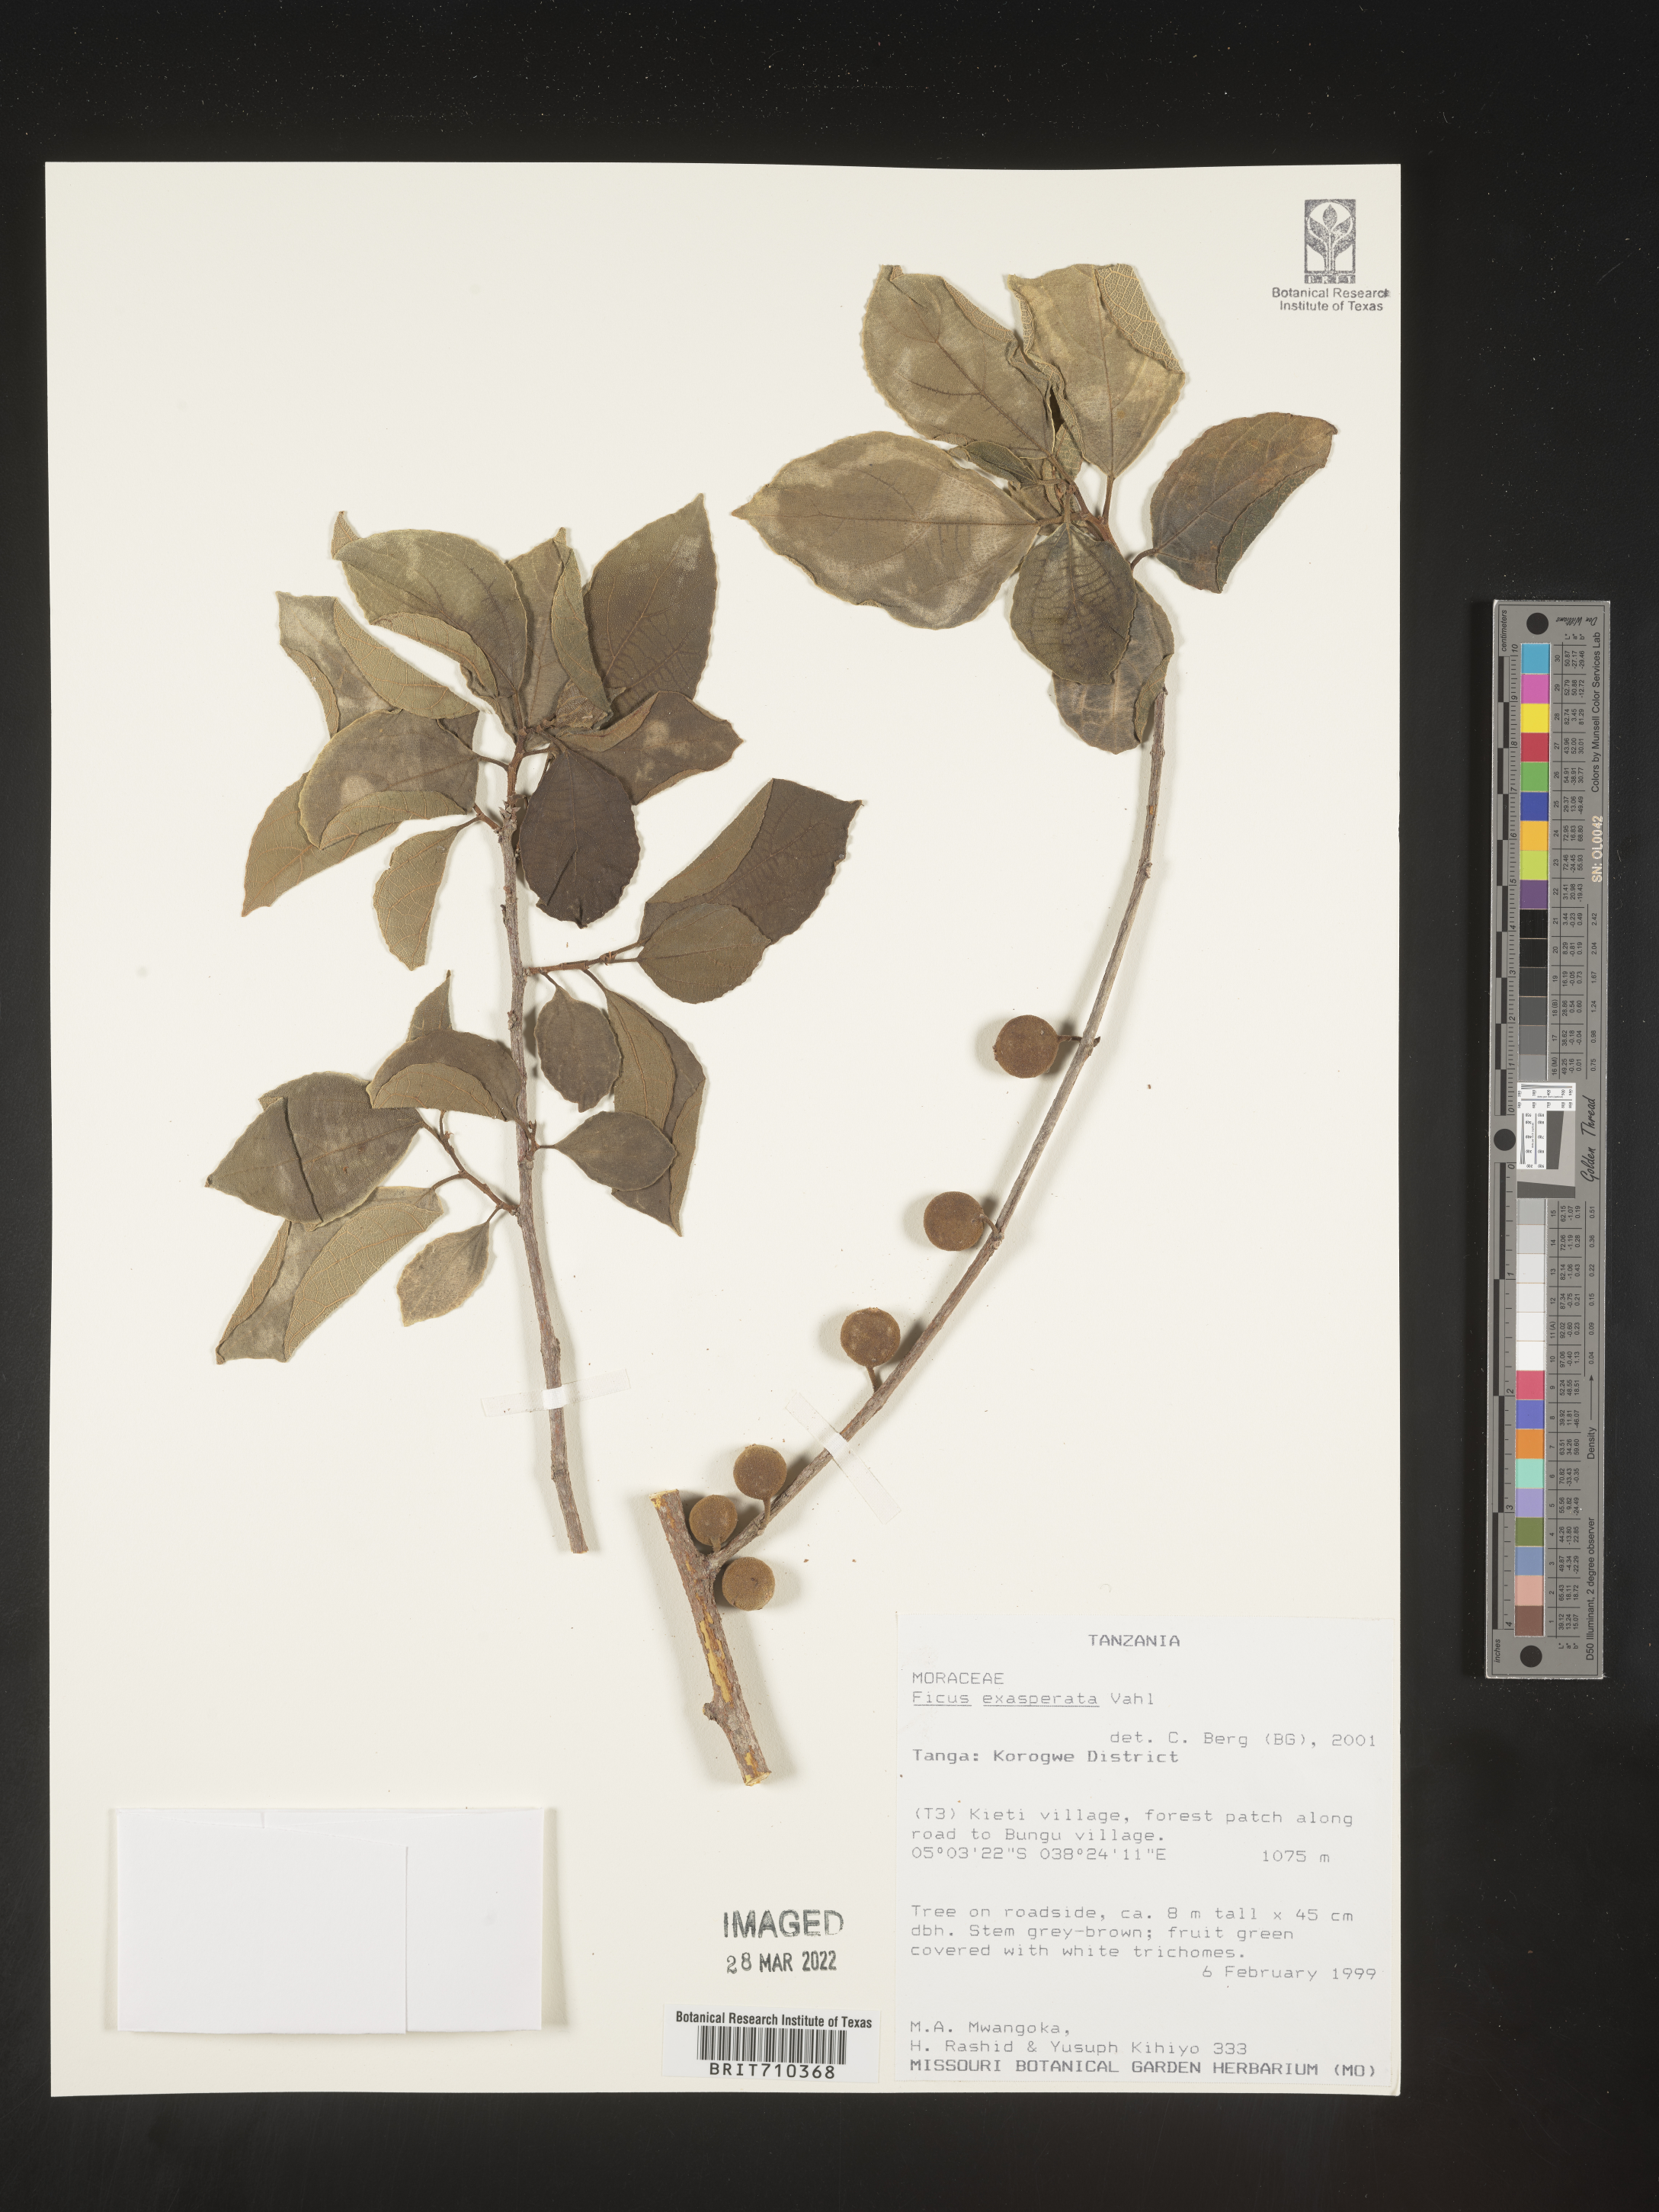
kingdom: Plantae
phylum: Tracheophyta
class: Magnoliopsida
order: Rosales
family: Moraceae
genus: Ficus
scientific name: Ficus
